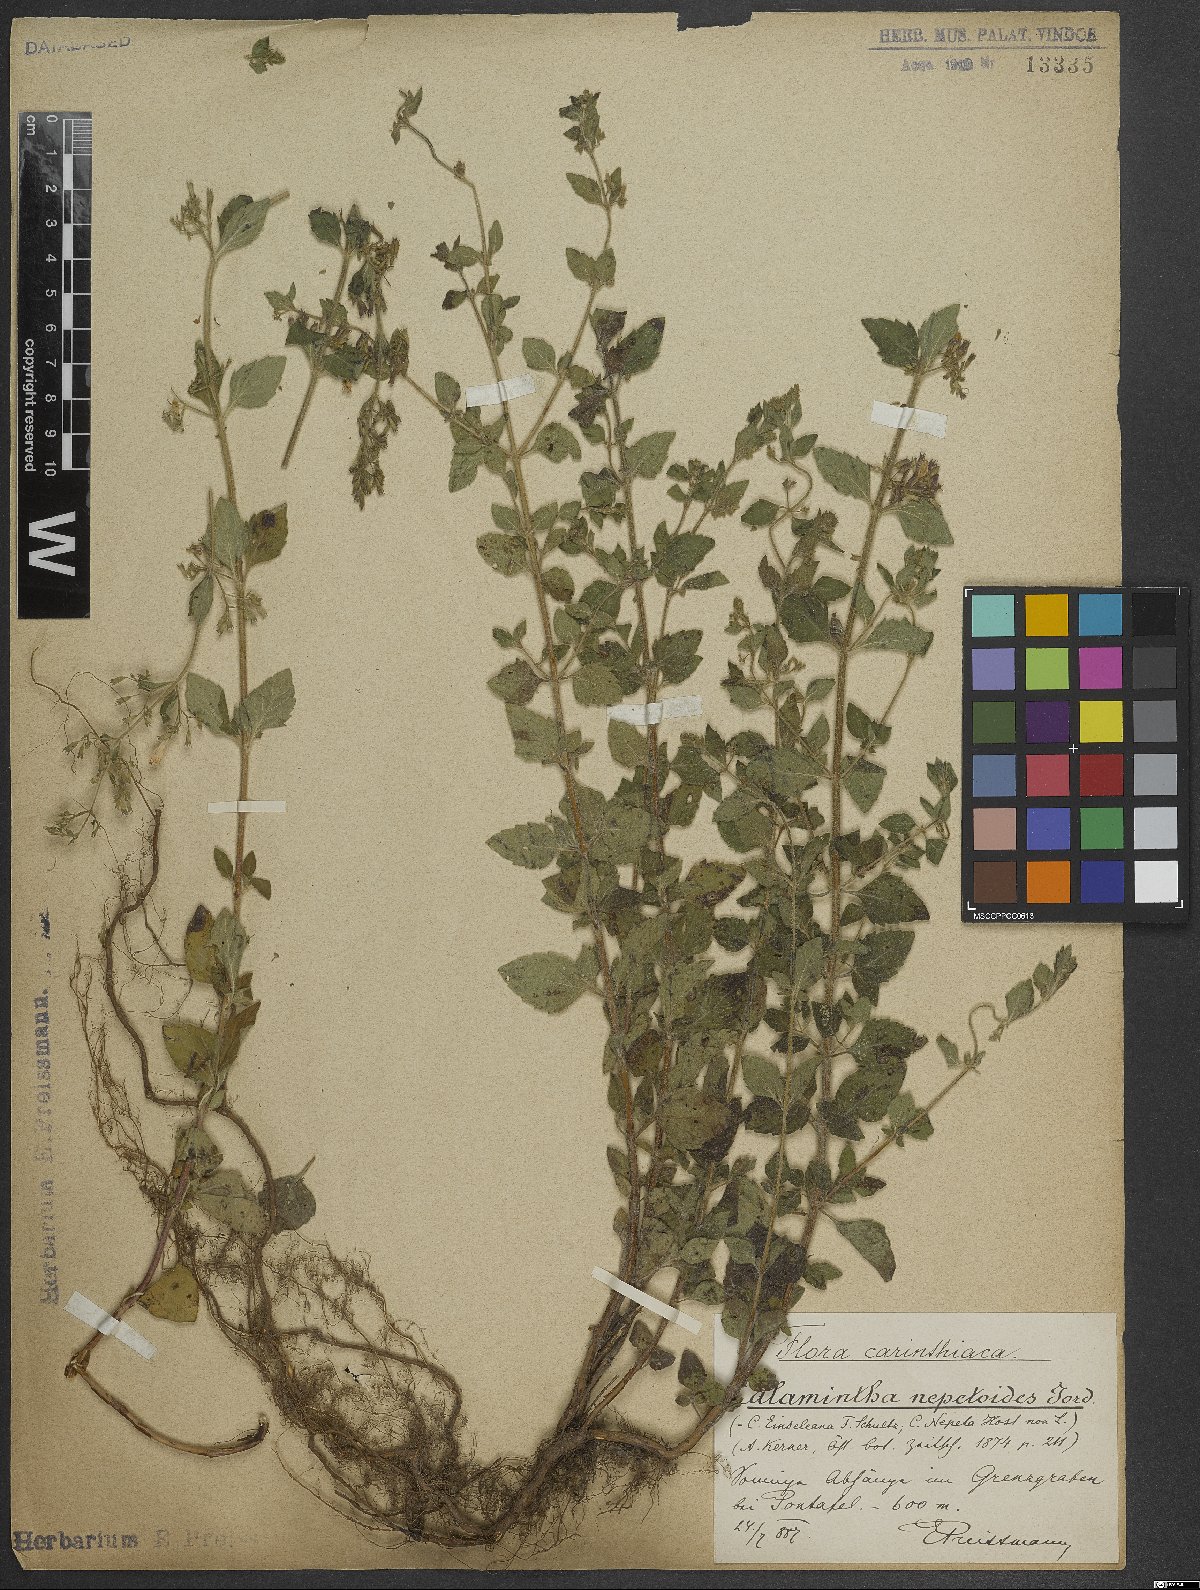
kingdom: Plantae
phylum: Tracheophyta
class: Magnoliopsida
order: Lamiales
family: Lamiaceae
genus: Clinopodium
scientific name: Clinopodium nepeta
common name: Lesser calamint
